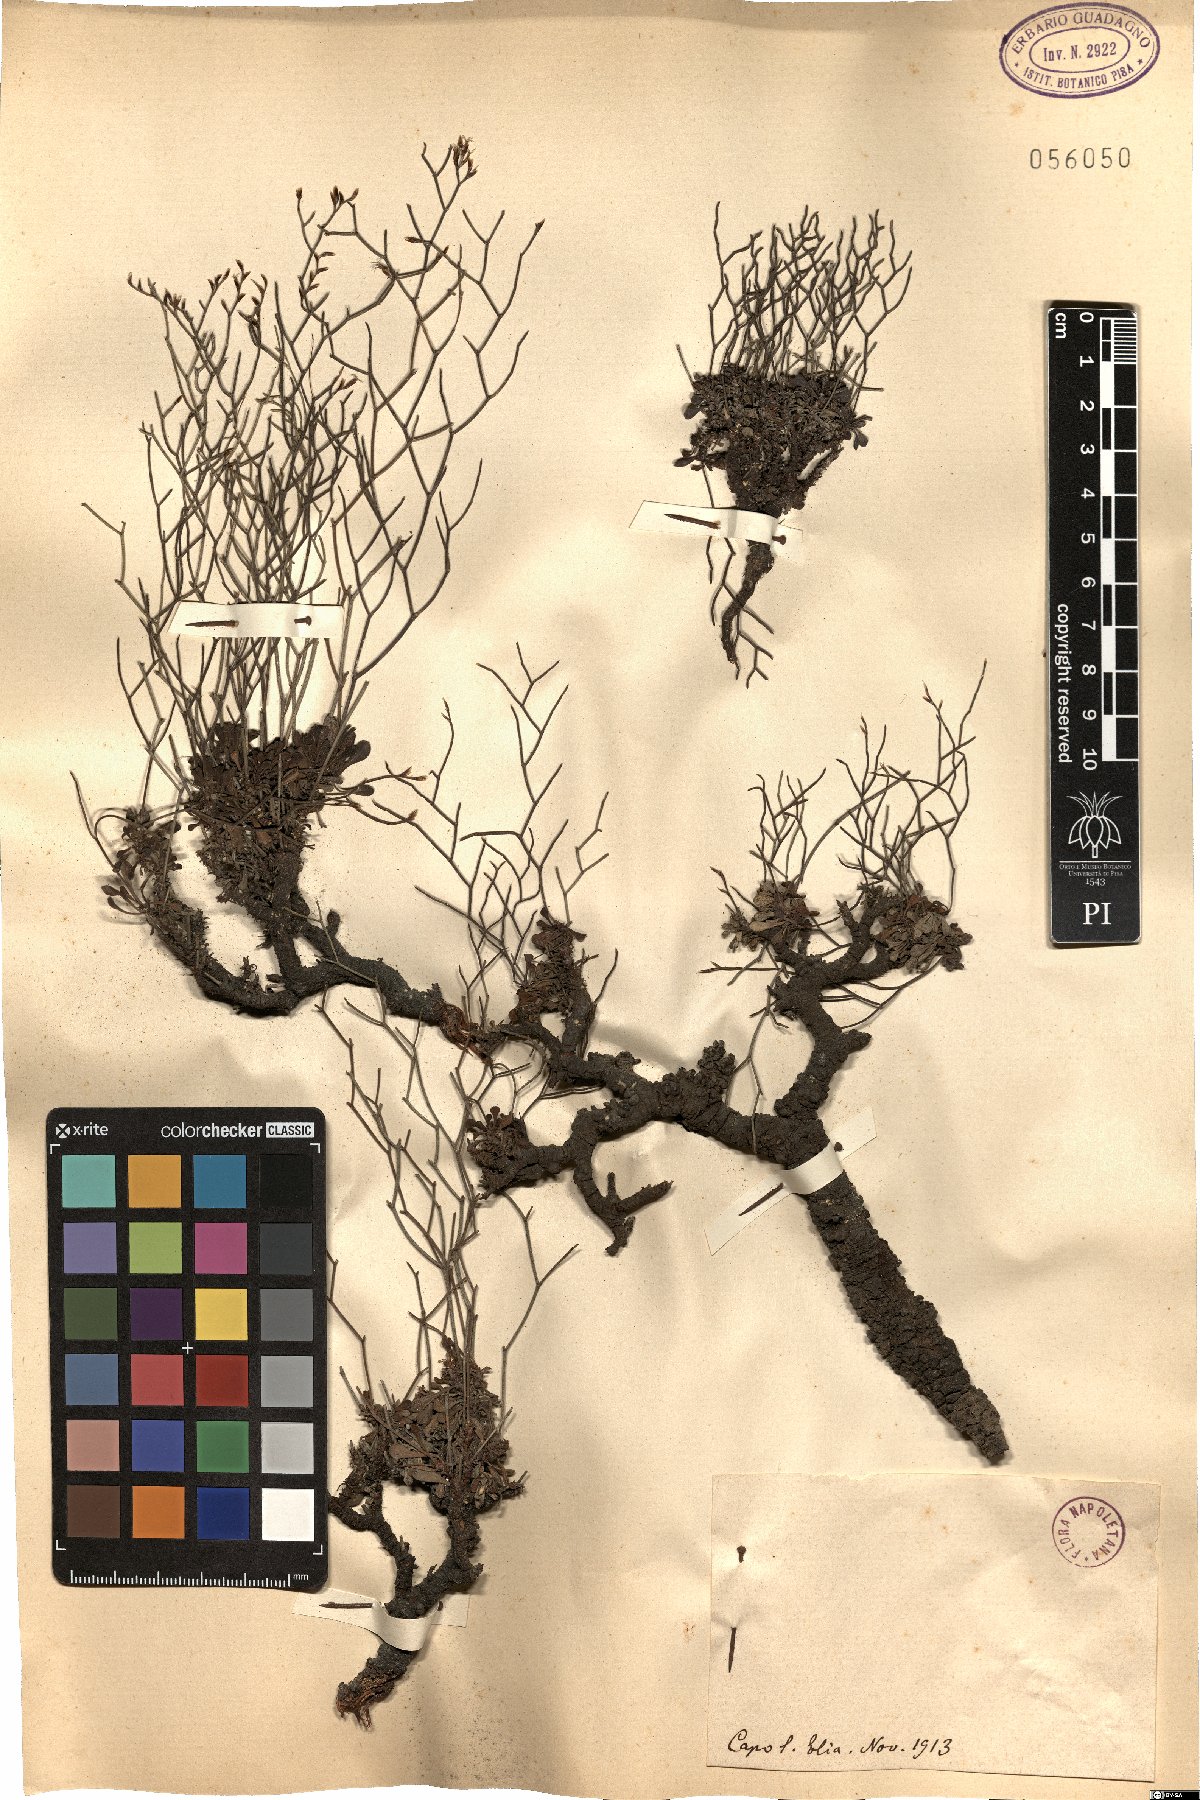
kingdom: Plantae
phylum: Tracheophyta
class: Magnoliopsida
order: Caryophyllales
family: Plumbaginaceae
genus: Armeria
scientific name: Armeria
